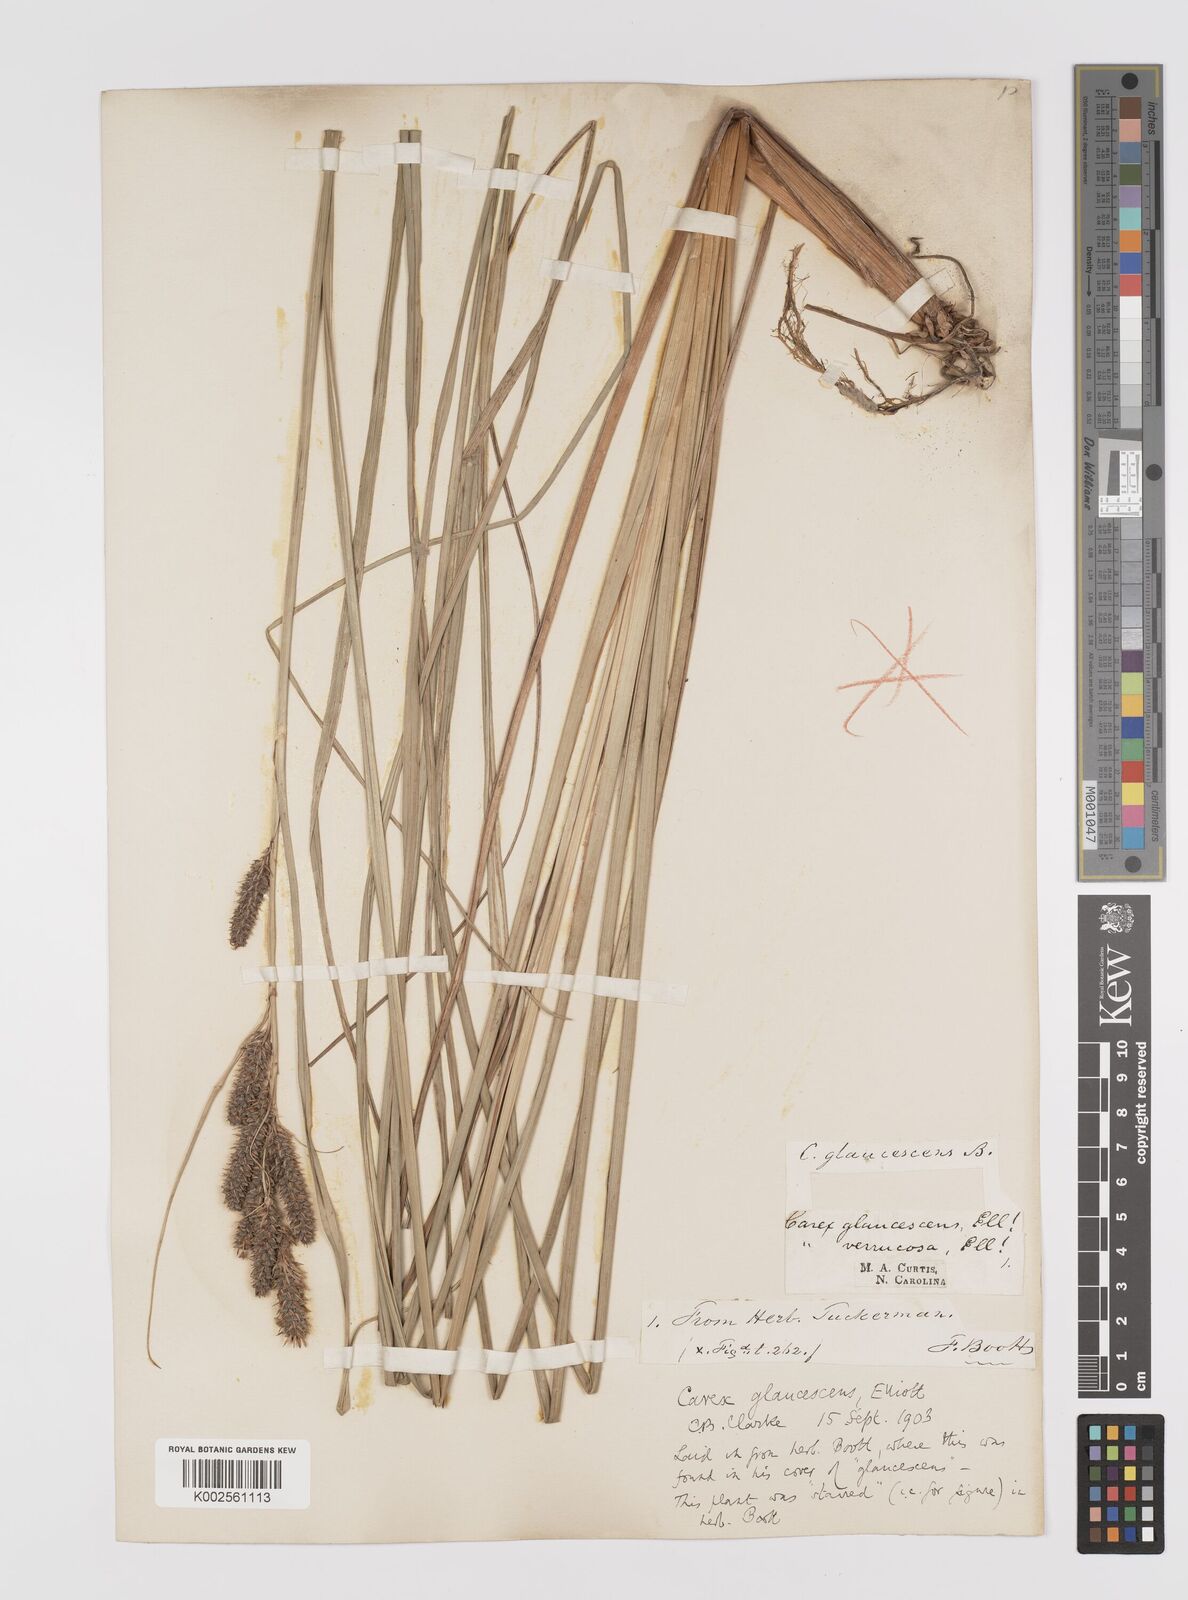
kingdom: Plantae
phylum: Tracheophyta
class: Liliopsida
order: Poales
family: Cyperaceae
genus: Carex
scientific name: Carex glaucescens
